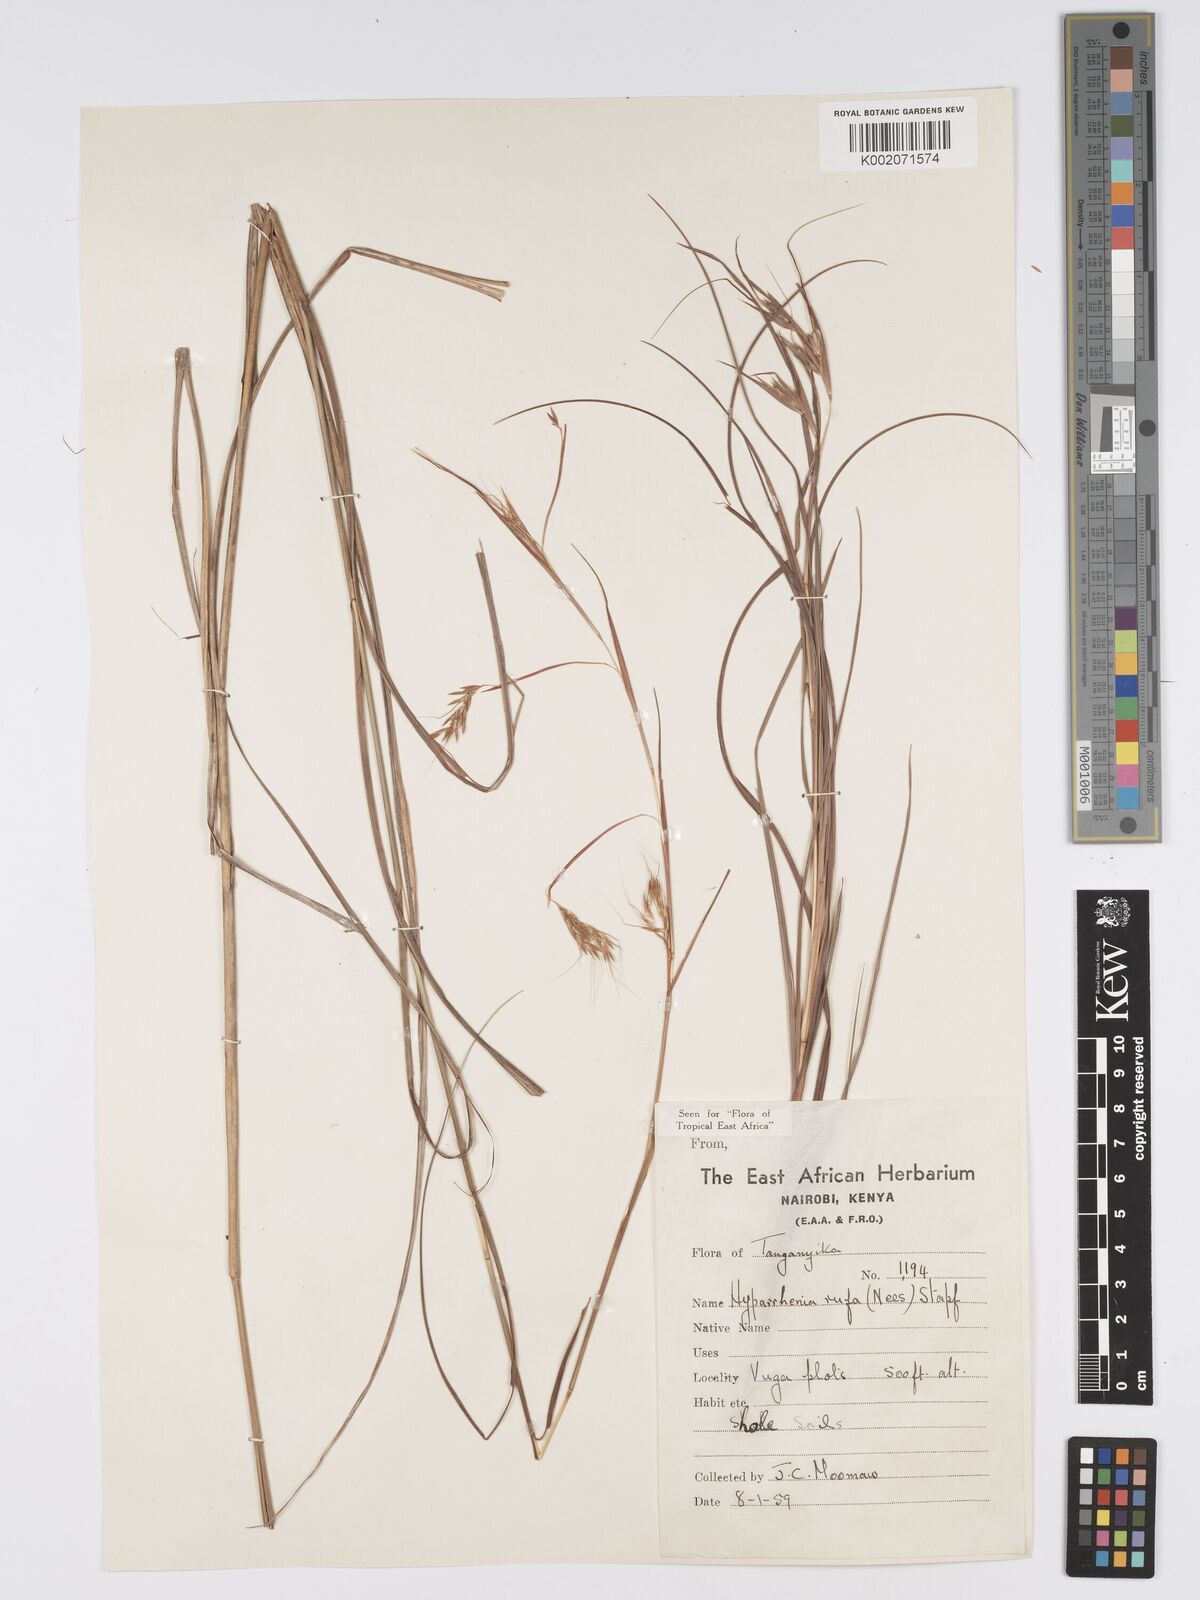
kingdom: Plantae
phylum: Tracheophyta
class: Liliopsida
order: Poales
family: Poaceae
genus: Hyparrhenia
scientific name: Hyparrhenia rufa
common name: Jaraguagrass
